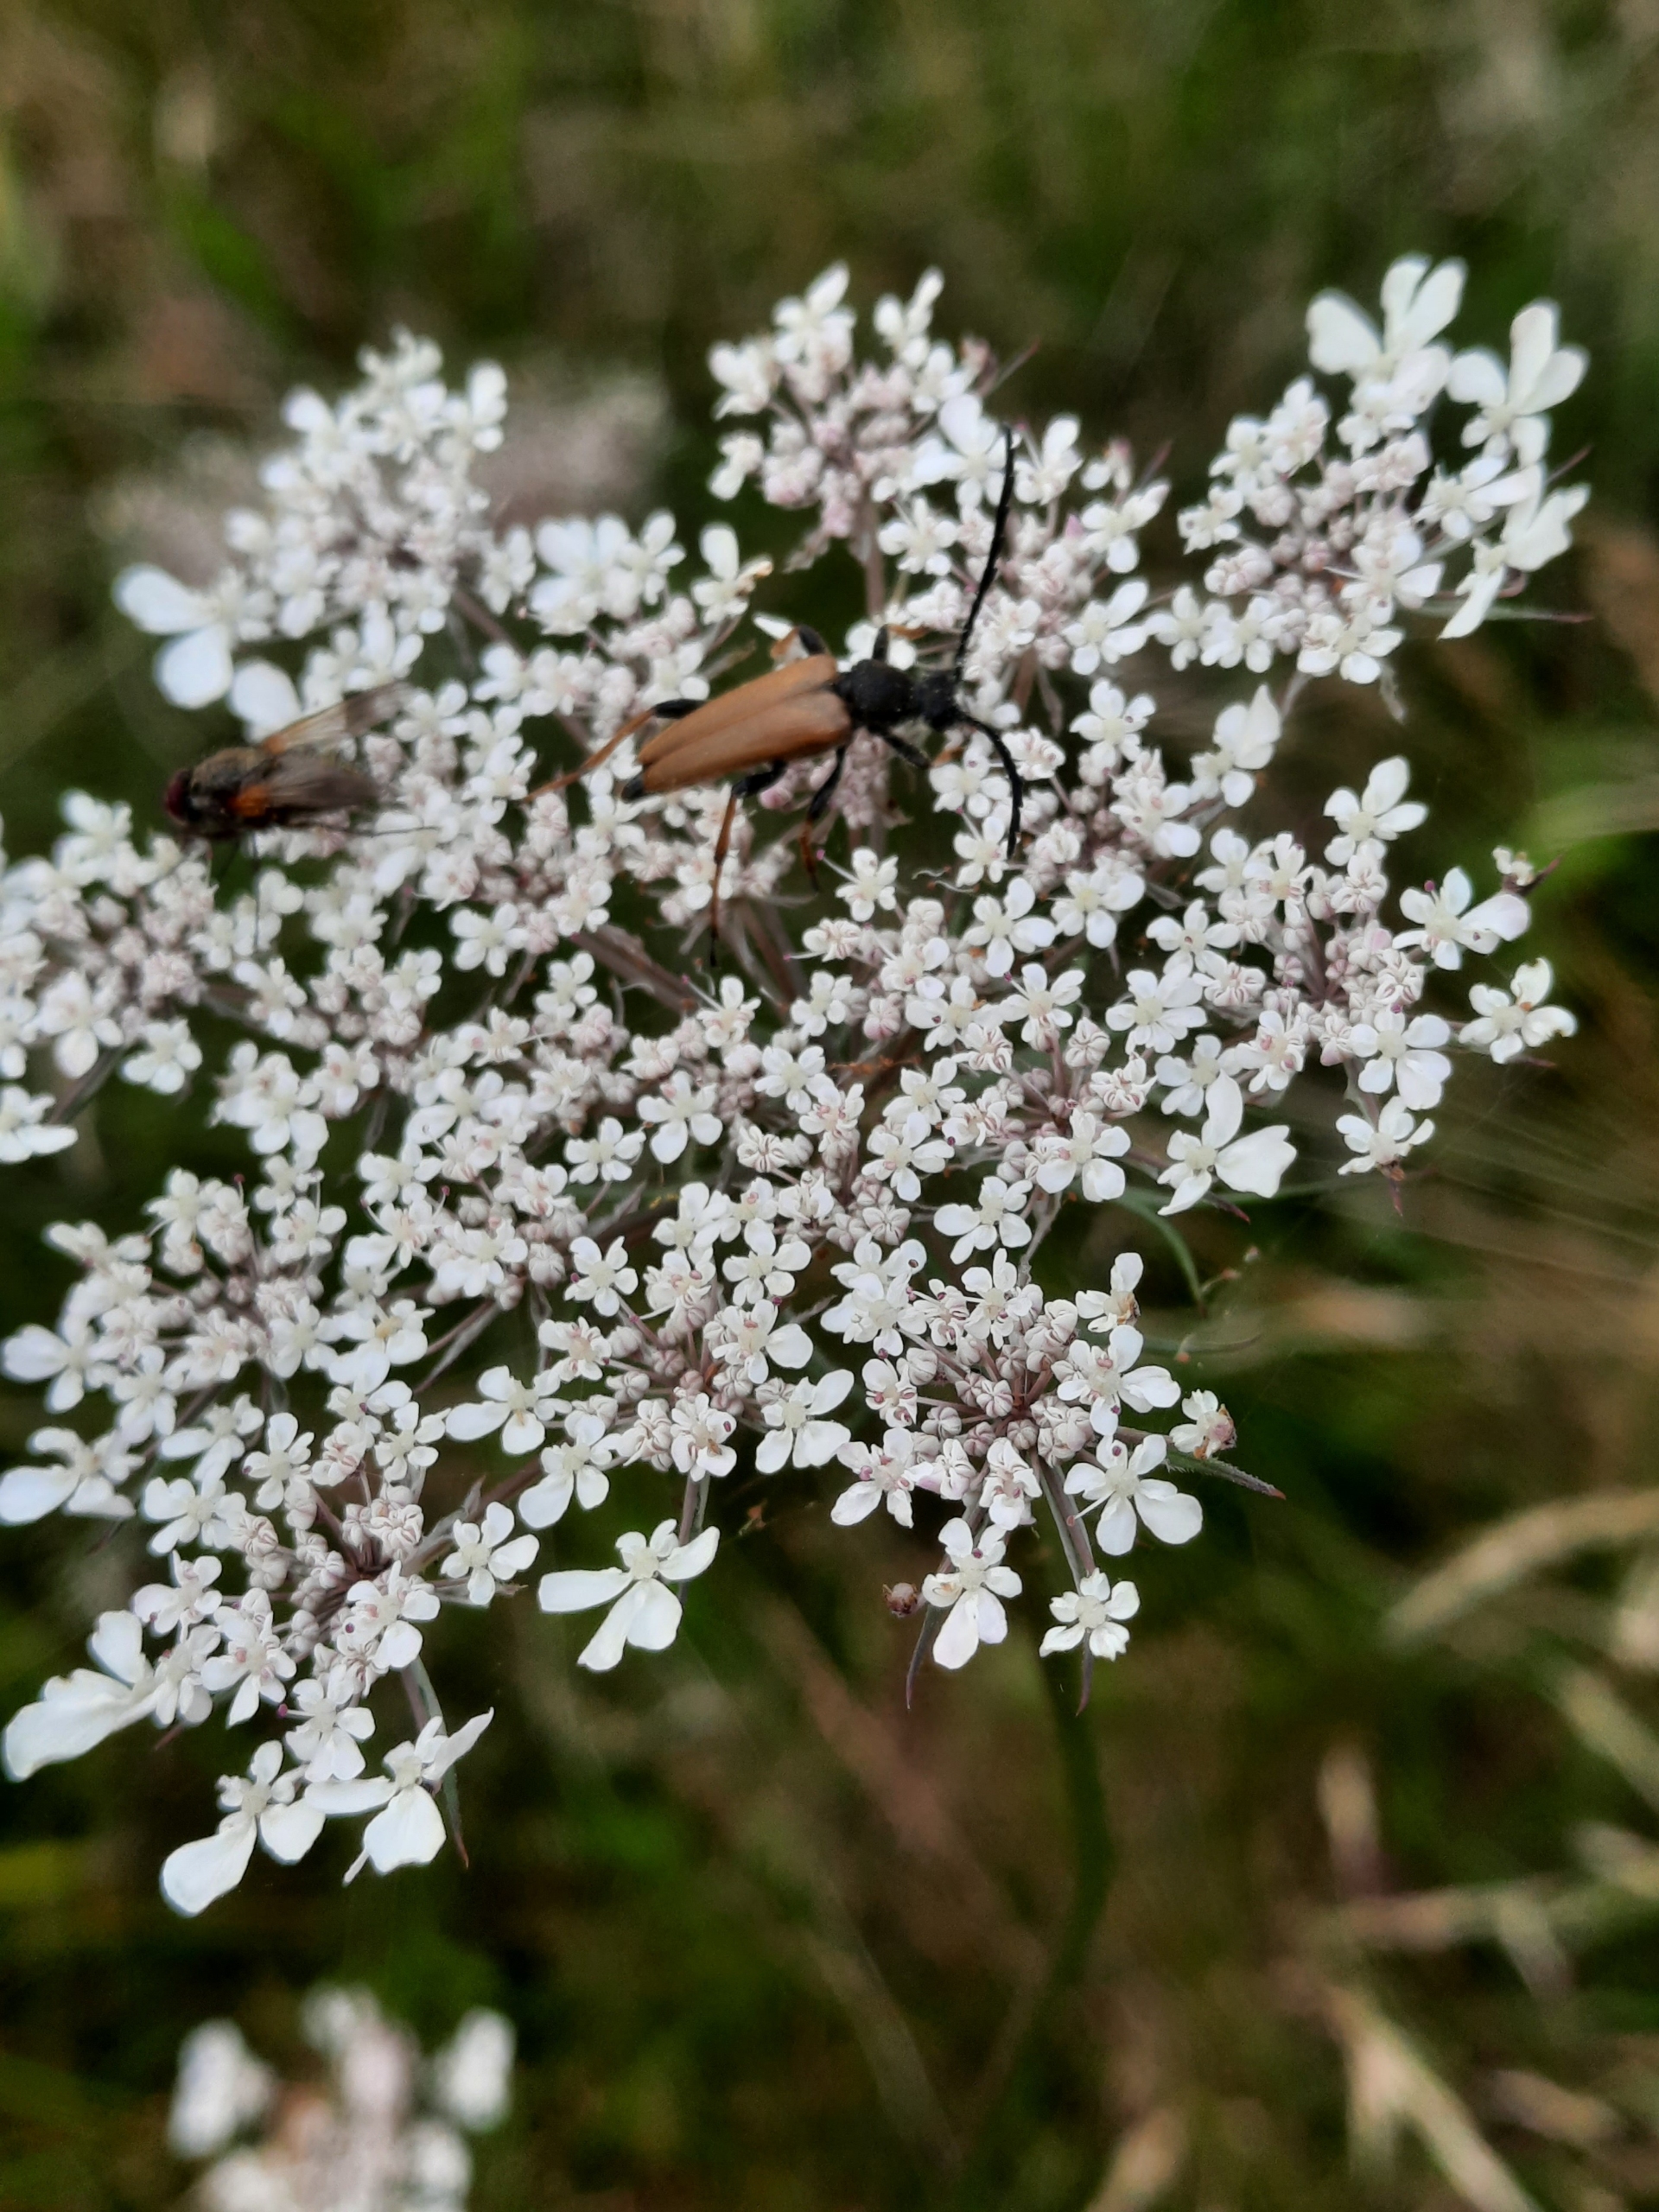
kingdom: Animalia
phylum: Arthropoda
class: Insecta
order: Coleoptera
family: Cerambycidae
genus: Stictoleptura
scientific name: Stictoleptura rubra
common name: Rød blomsterbuk
